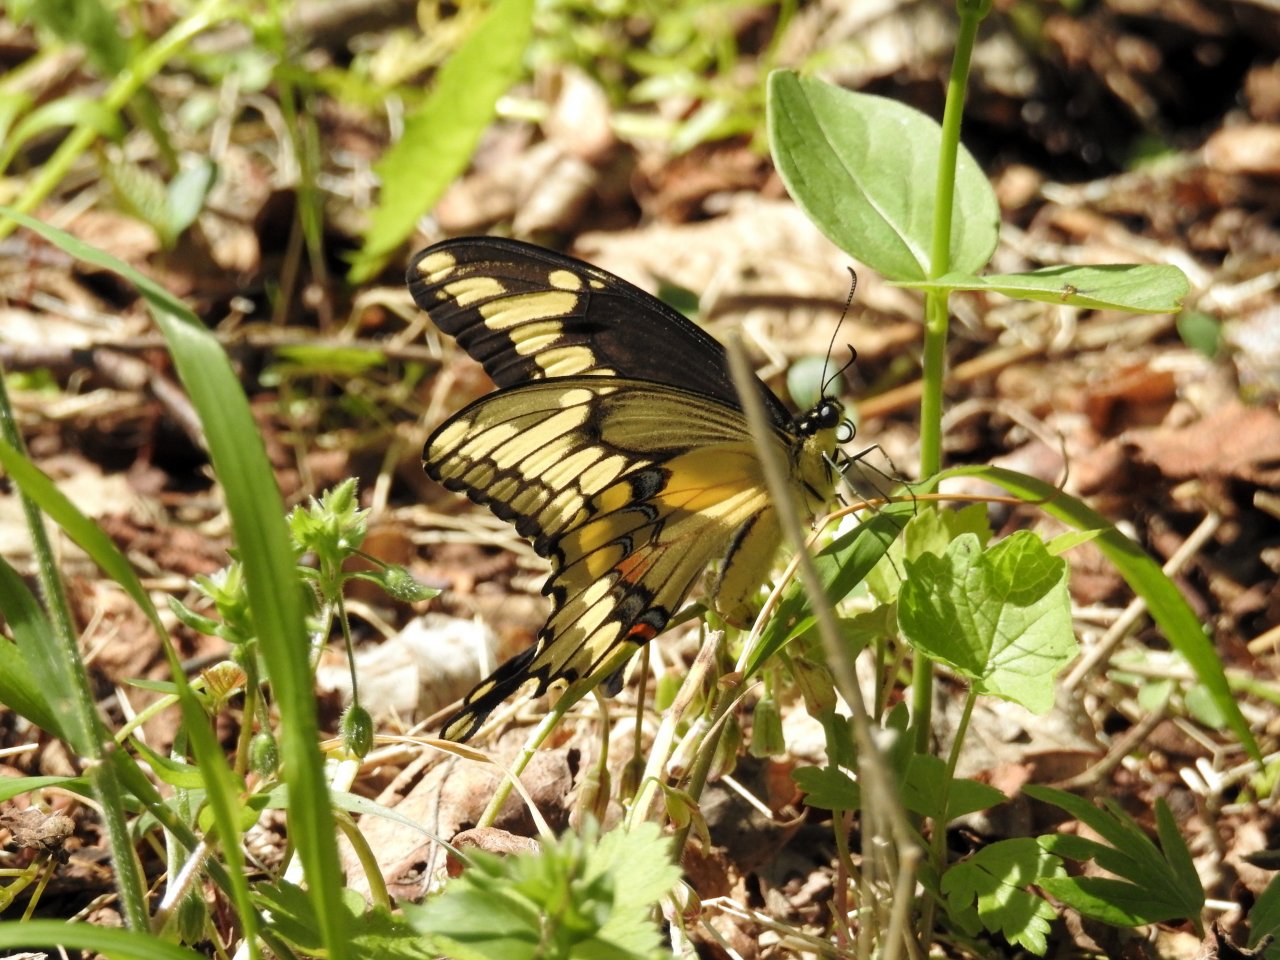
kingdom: Animalia
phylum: Arthropoda
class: Insecta
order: Lepidoptera
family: Papilionidae
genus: Papilio
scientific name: Papilio cresphontes
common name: Eastern Giant Swallowtail
